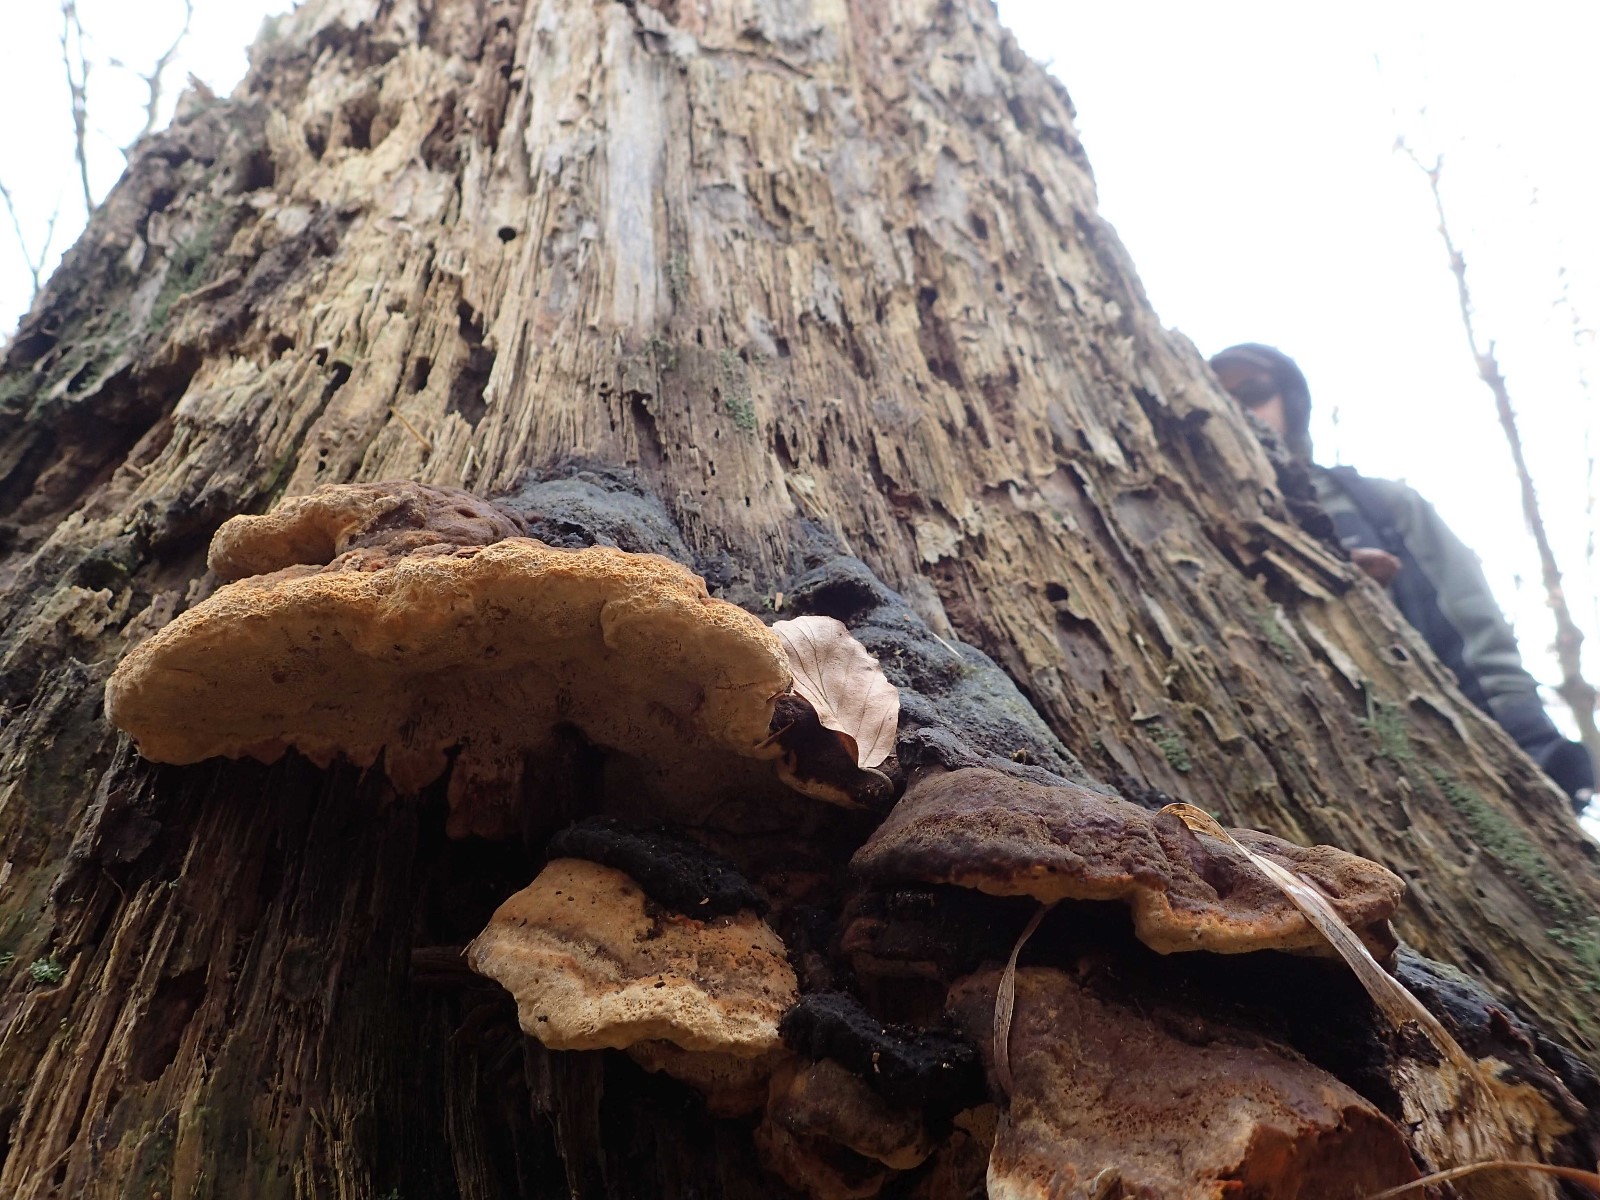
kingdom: Fungi
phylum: Basidiomycota
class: Agaricomycetes
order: Gloeophyllales
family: Gloeophyllaceae
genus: Gloeophyllum
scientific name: Gloeophyllum odoratum
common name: duftende korkhat
